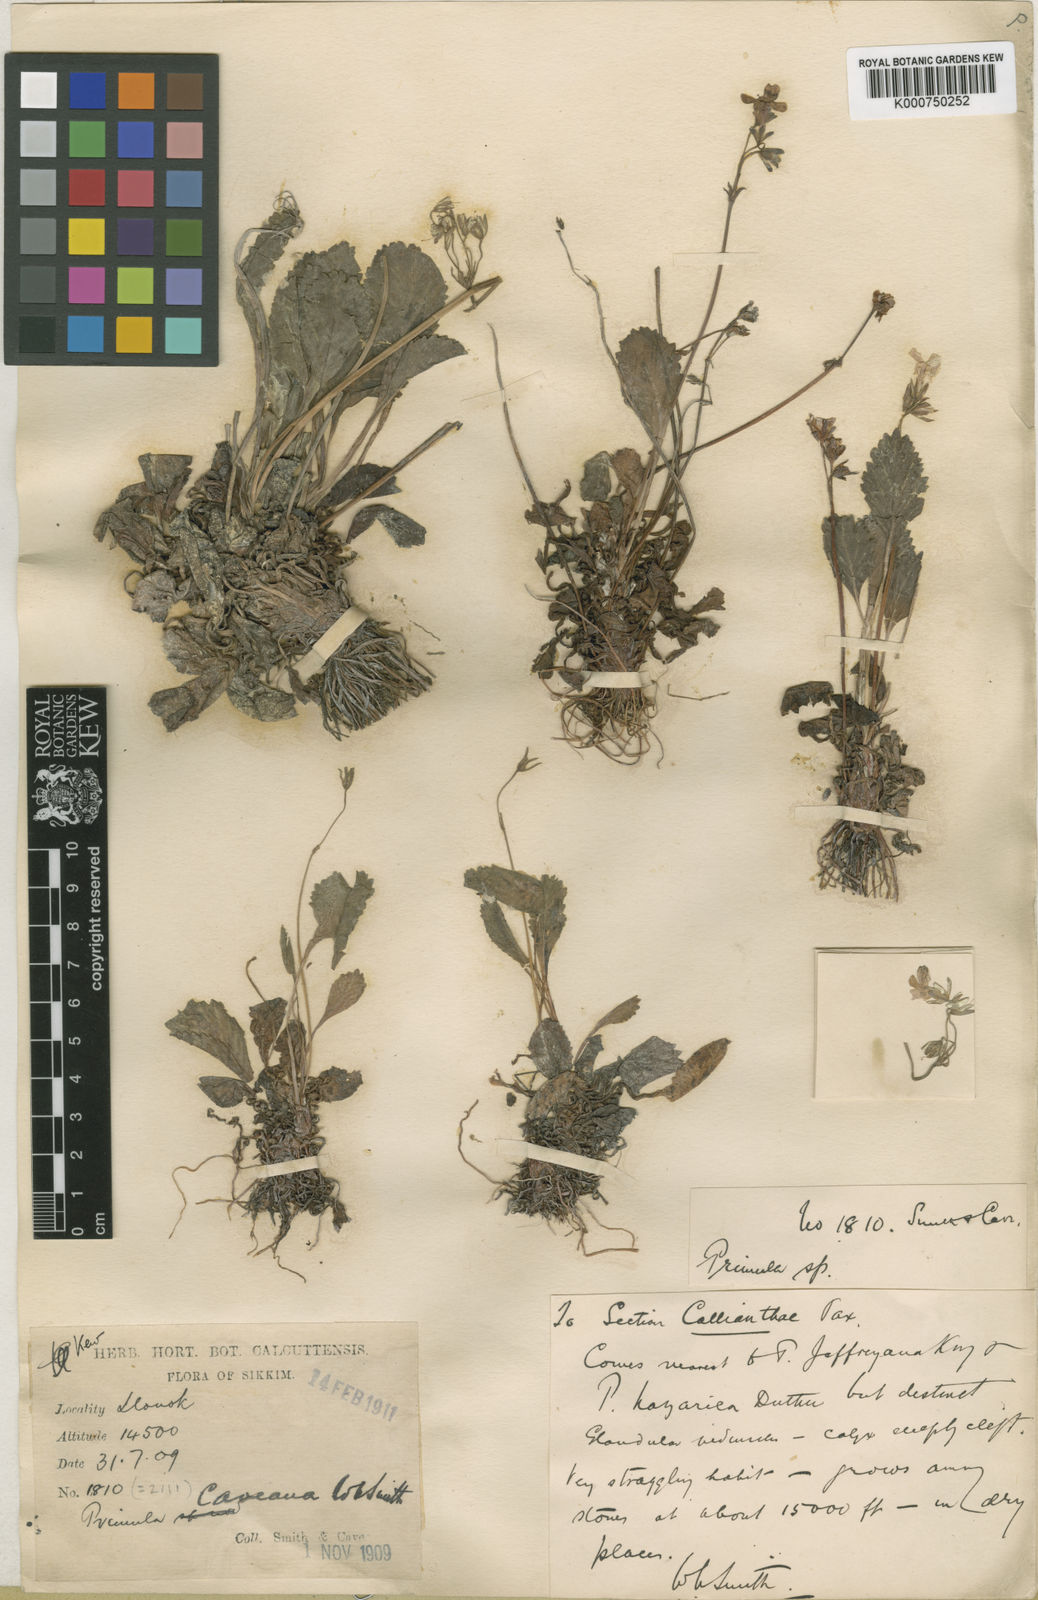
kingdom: Plantae
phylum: Tracheophyta
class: Magnoliopsida
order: Ericales
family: Primulaceae
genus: Primula
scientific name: Primula caveana
